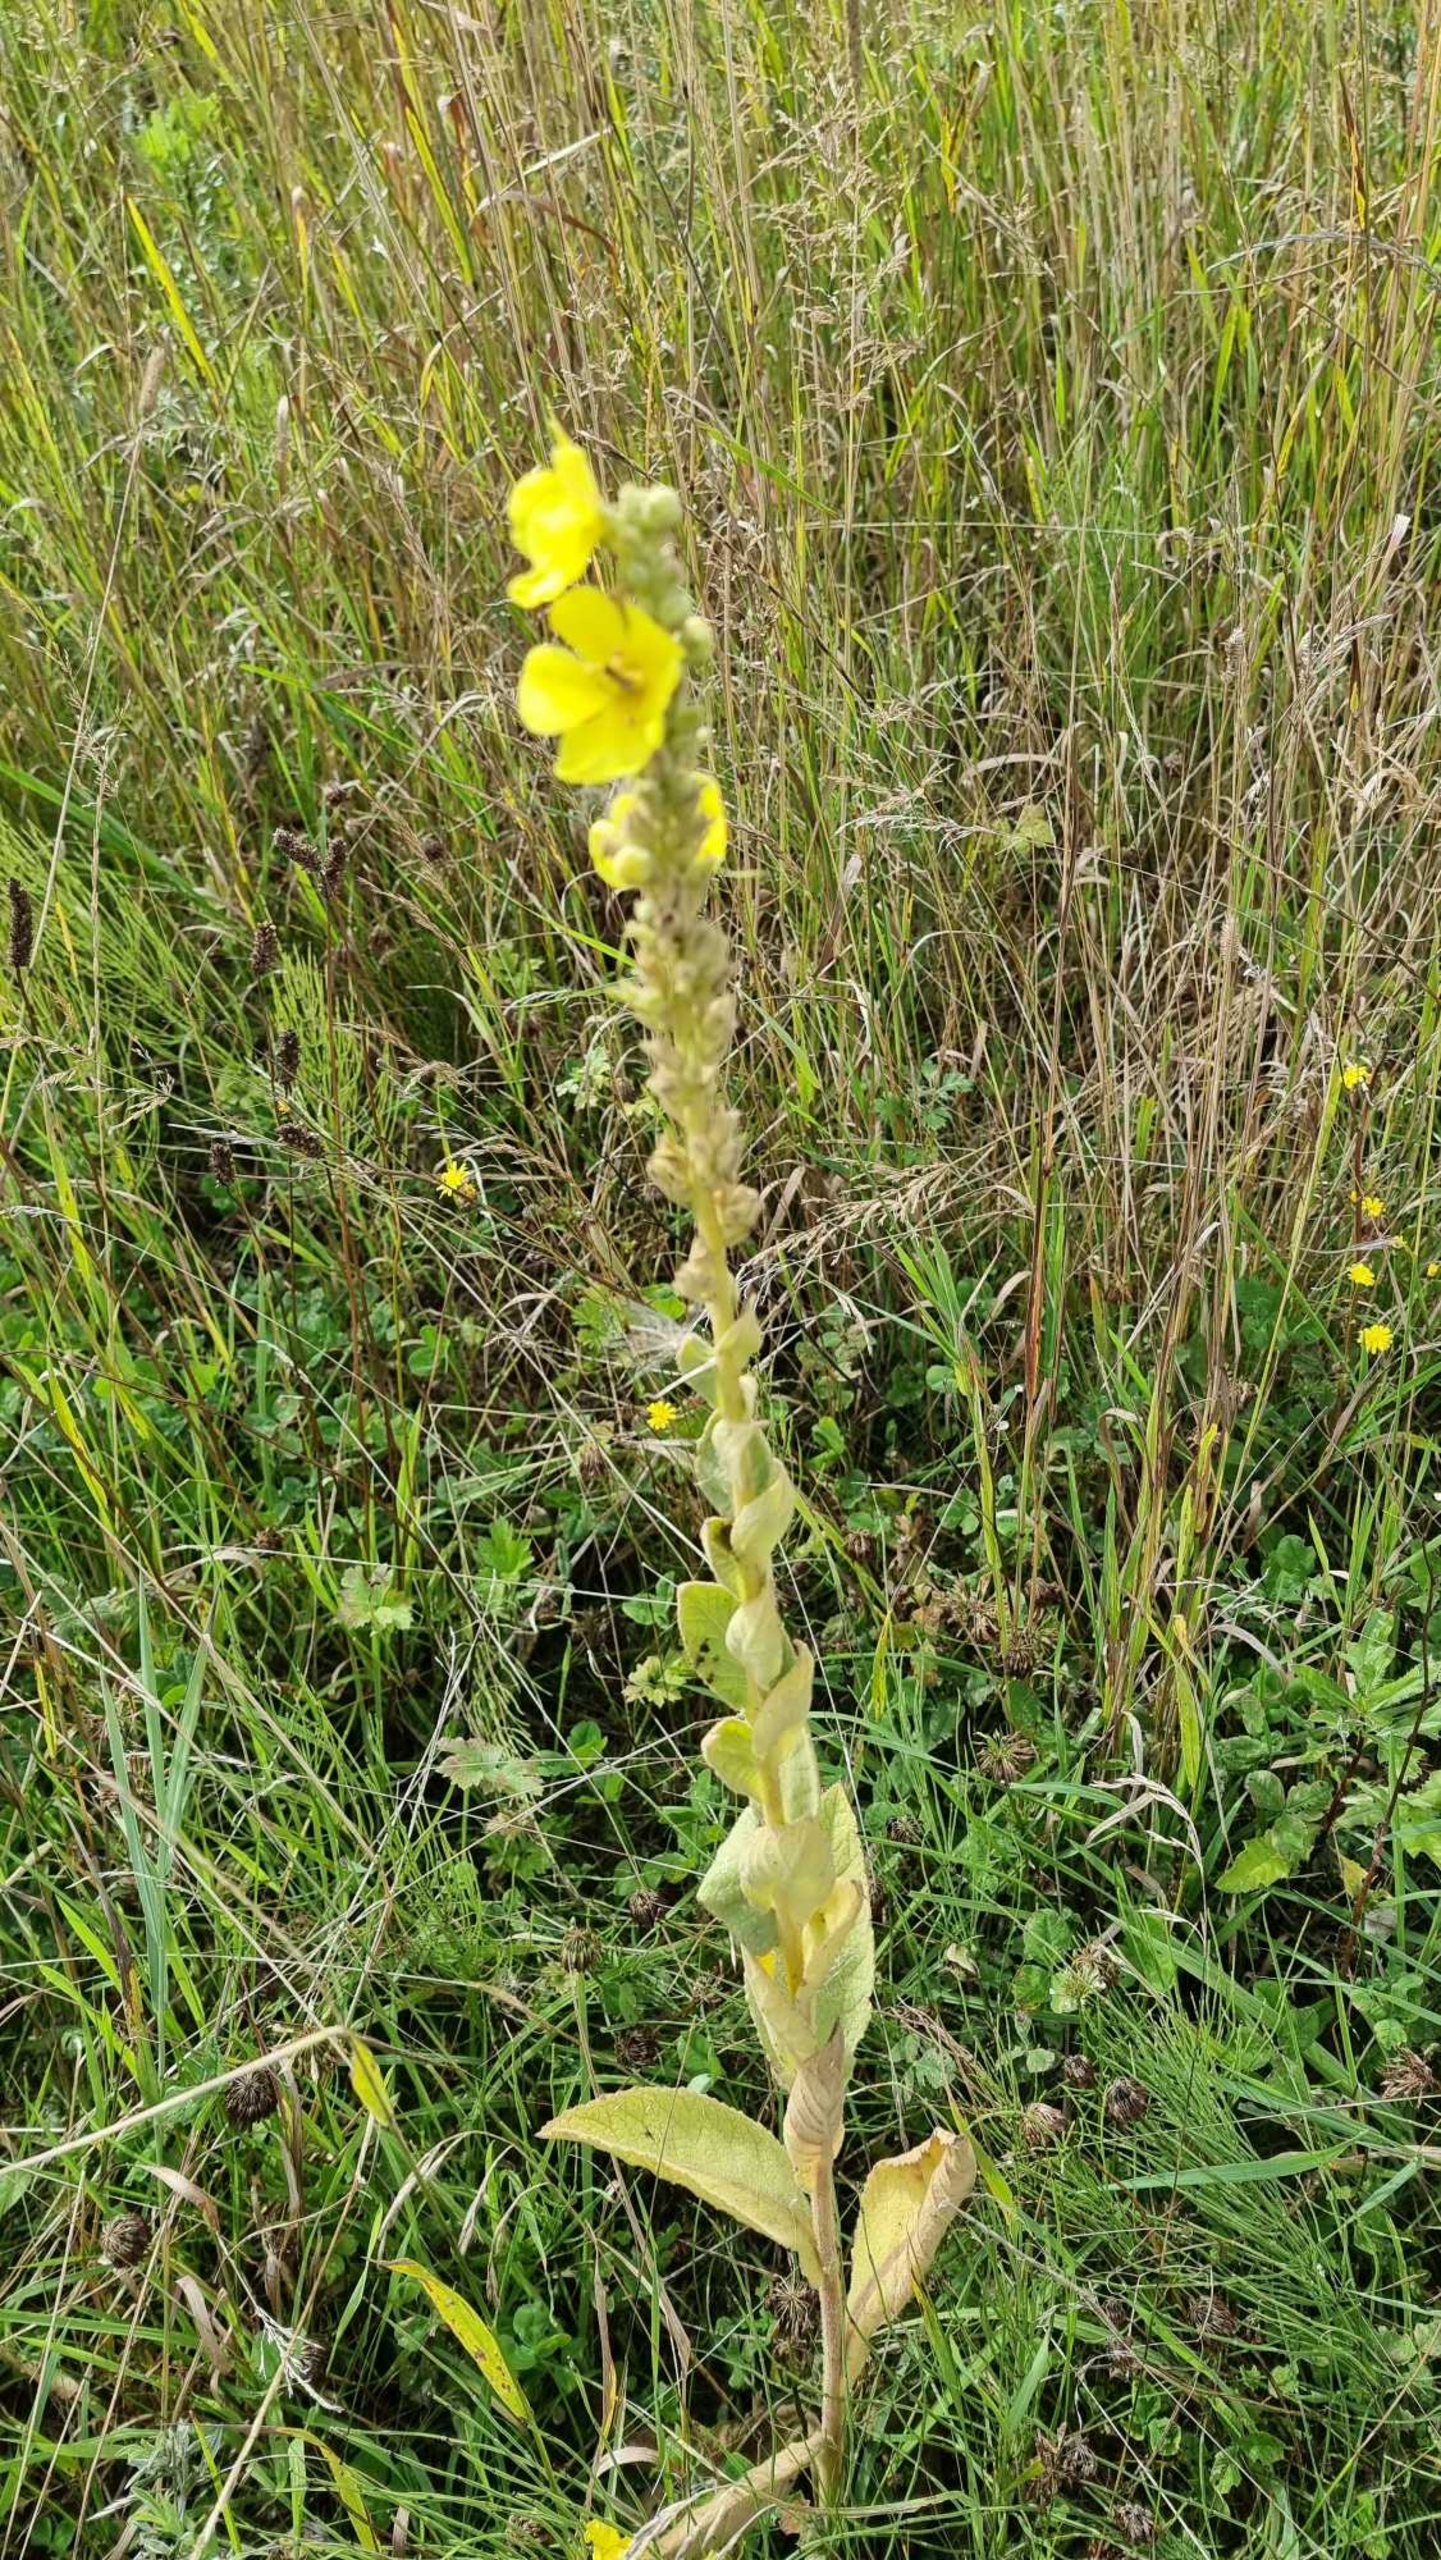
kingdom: Plantae
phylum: Tracheophyta
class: Magnoliopsida
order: Lamiales
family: Scrophulariaceae
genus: Verbascum
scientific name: Verbascum thapsus
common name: Filtbladet kongelys
